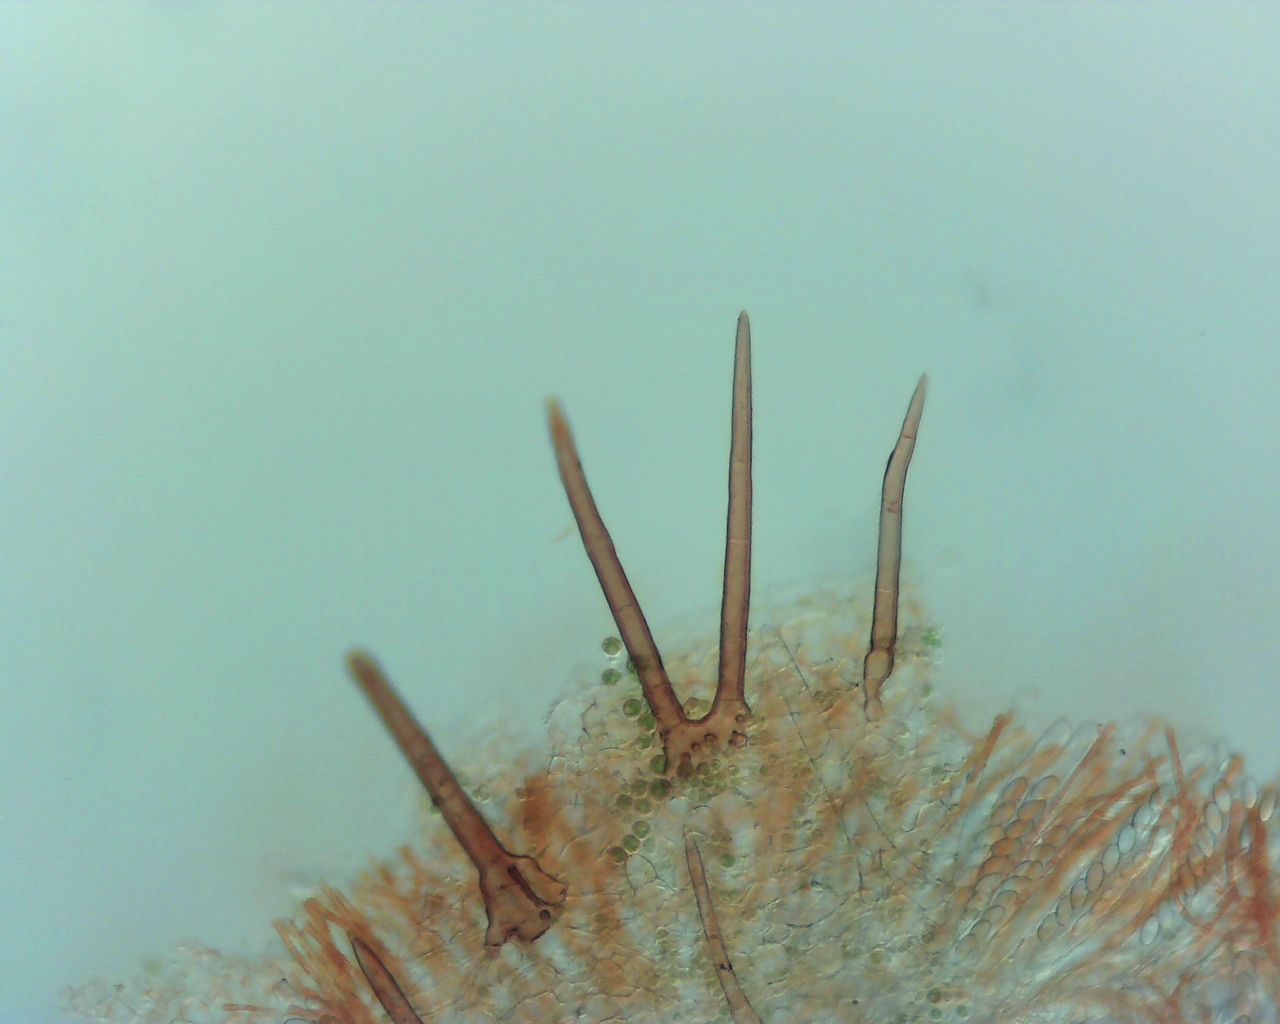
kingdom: Fungi
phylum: Ascomycota
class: Pezizomycetes
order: Pezizales
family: Pyronemataceae
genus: Cheilymenia
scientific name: Cheilymenia fimicola
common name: møg-hårbæger
